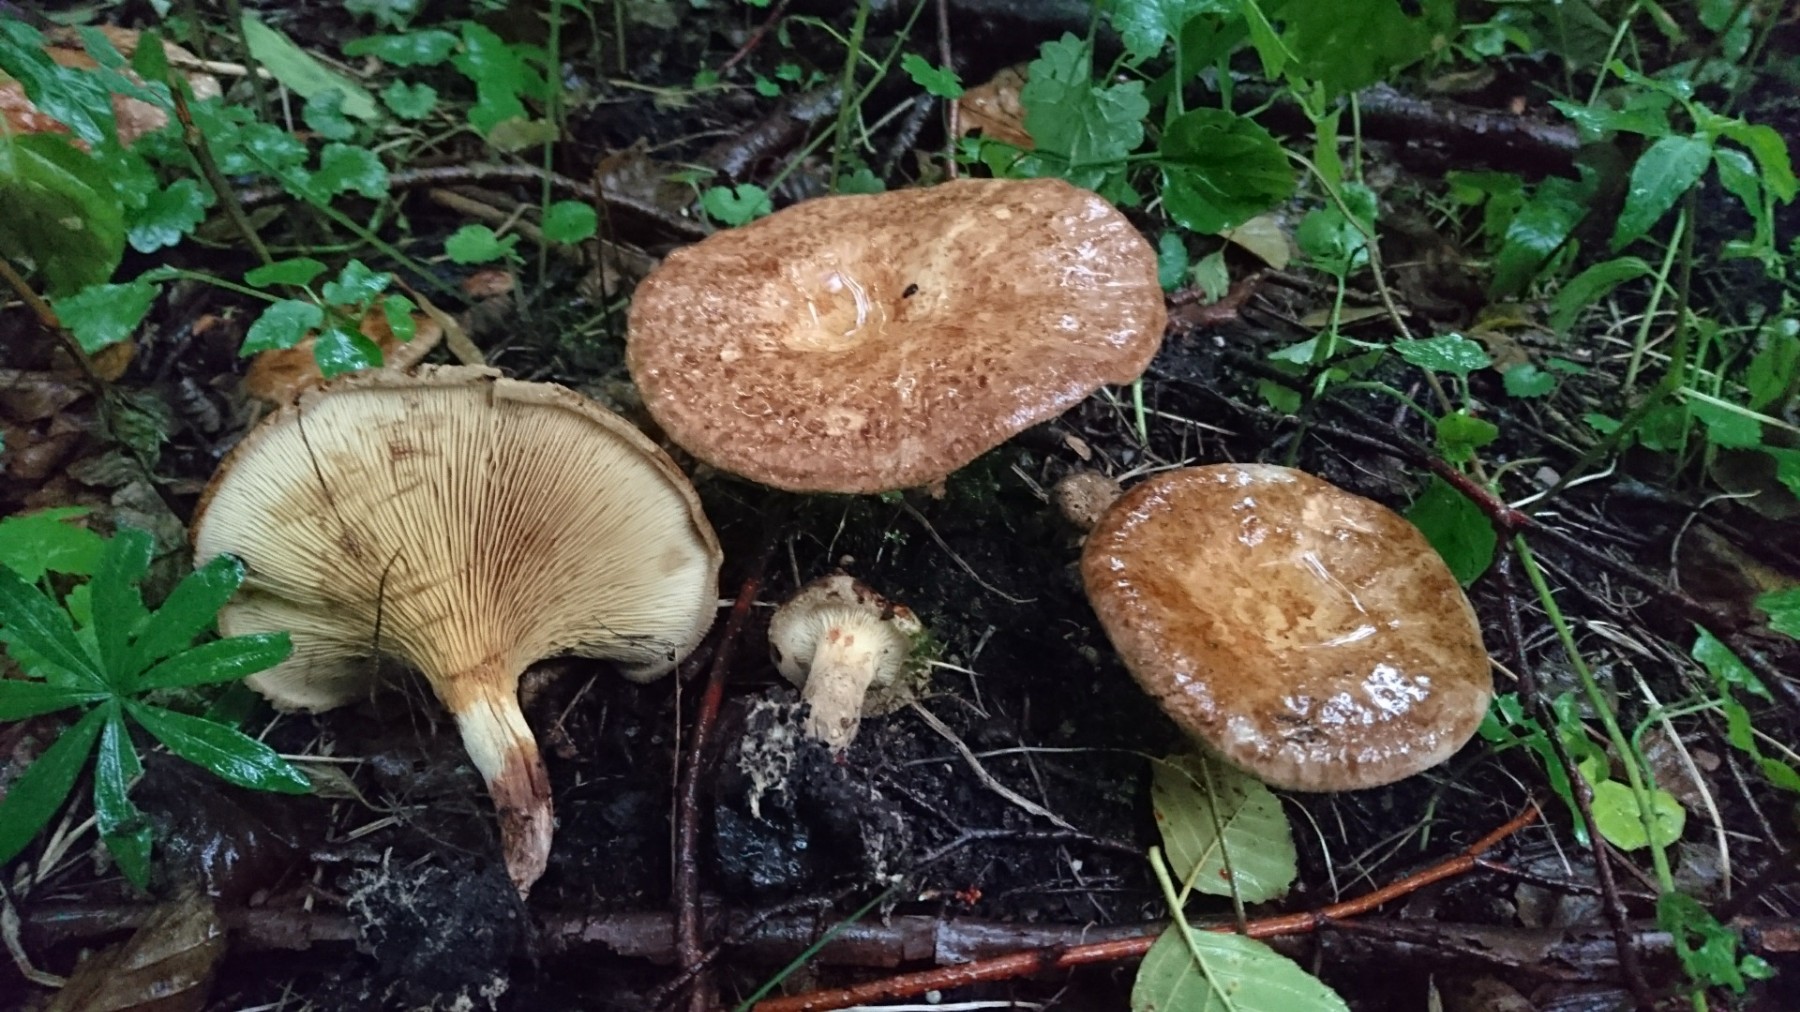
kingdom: Fungi
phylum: Basidiomycota
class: Agaricomycetes
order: Boletales
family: Paxillaceae
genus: Paxillus
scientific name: Paxillus rubicundulus
